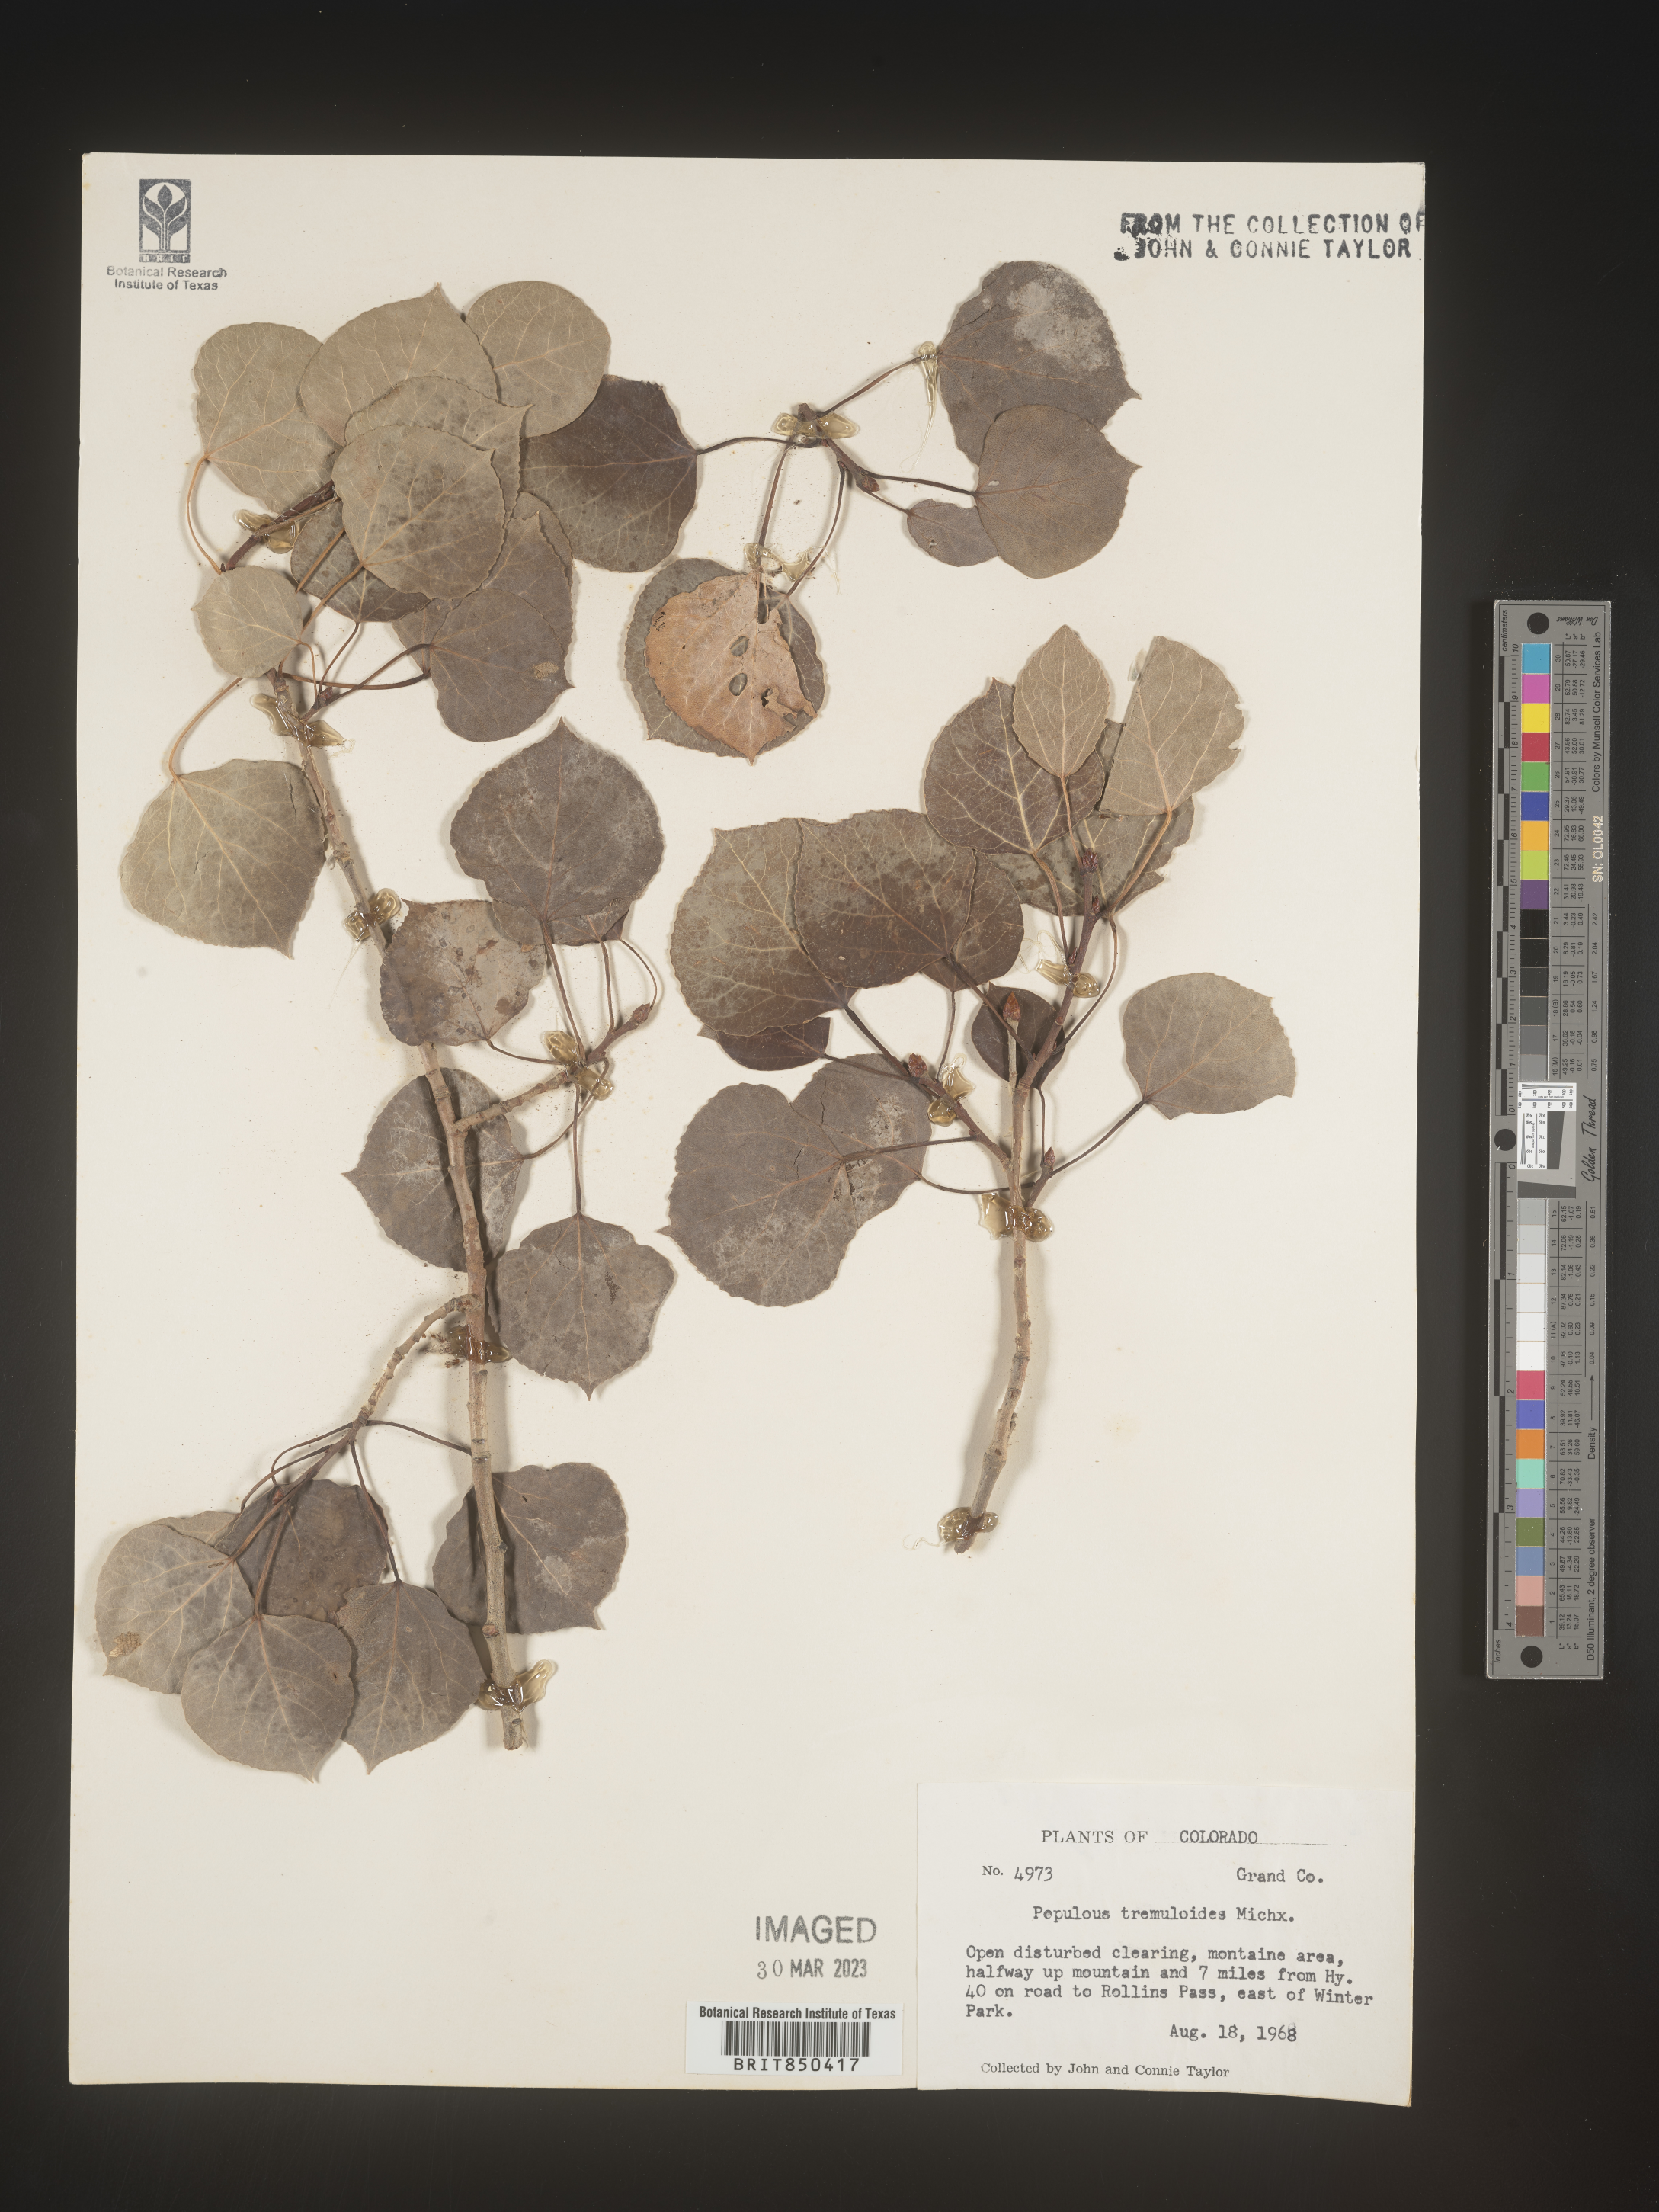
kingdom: Plantae
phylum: Tracheophyta
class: Magnoliopsida
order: Malpighiales
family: Salicaceae
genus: Populus
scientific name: Populus tremuloides
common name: Quaking aspen
